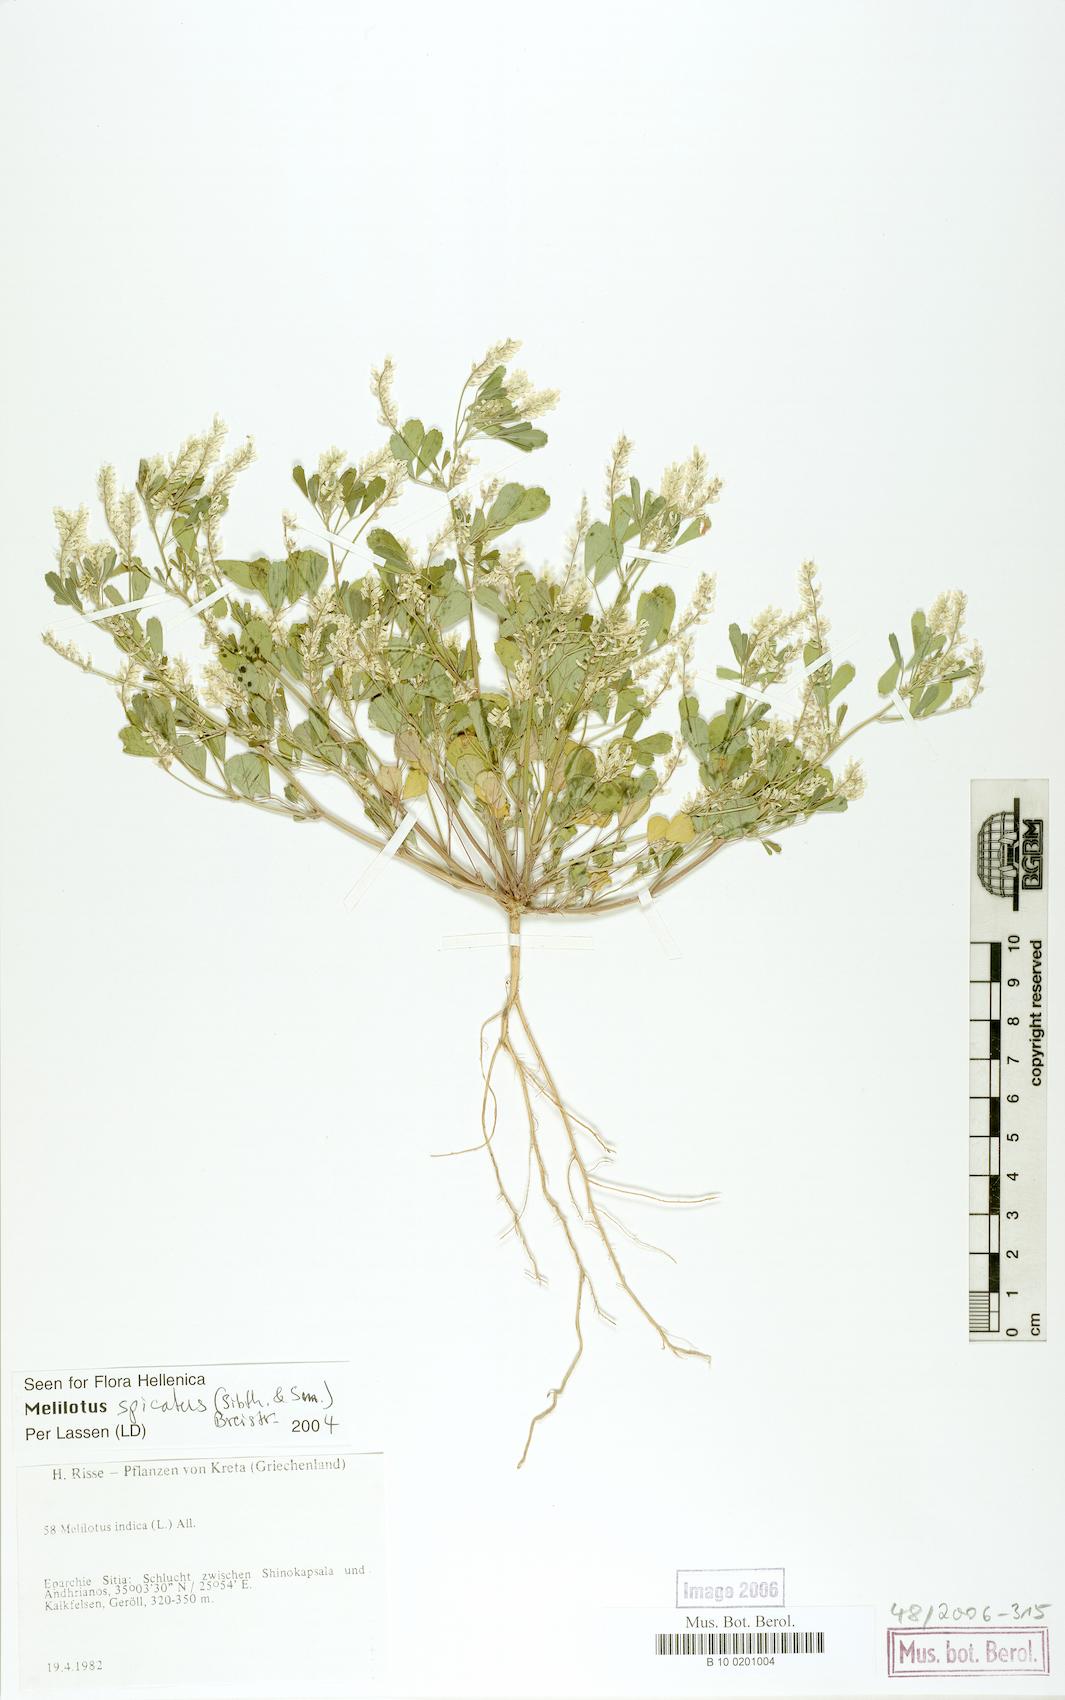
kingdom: Plantae
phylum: Tracheophyta
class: Magnoliopsida
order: Fabales
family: Fabaceae
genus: Melilotus
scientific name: Melilotus neapolitanus
